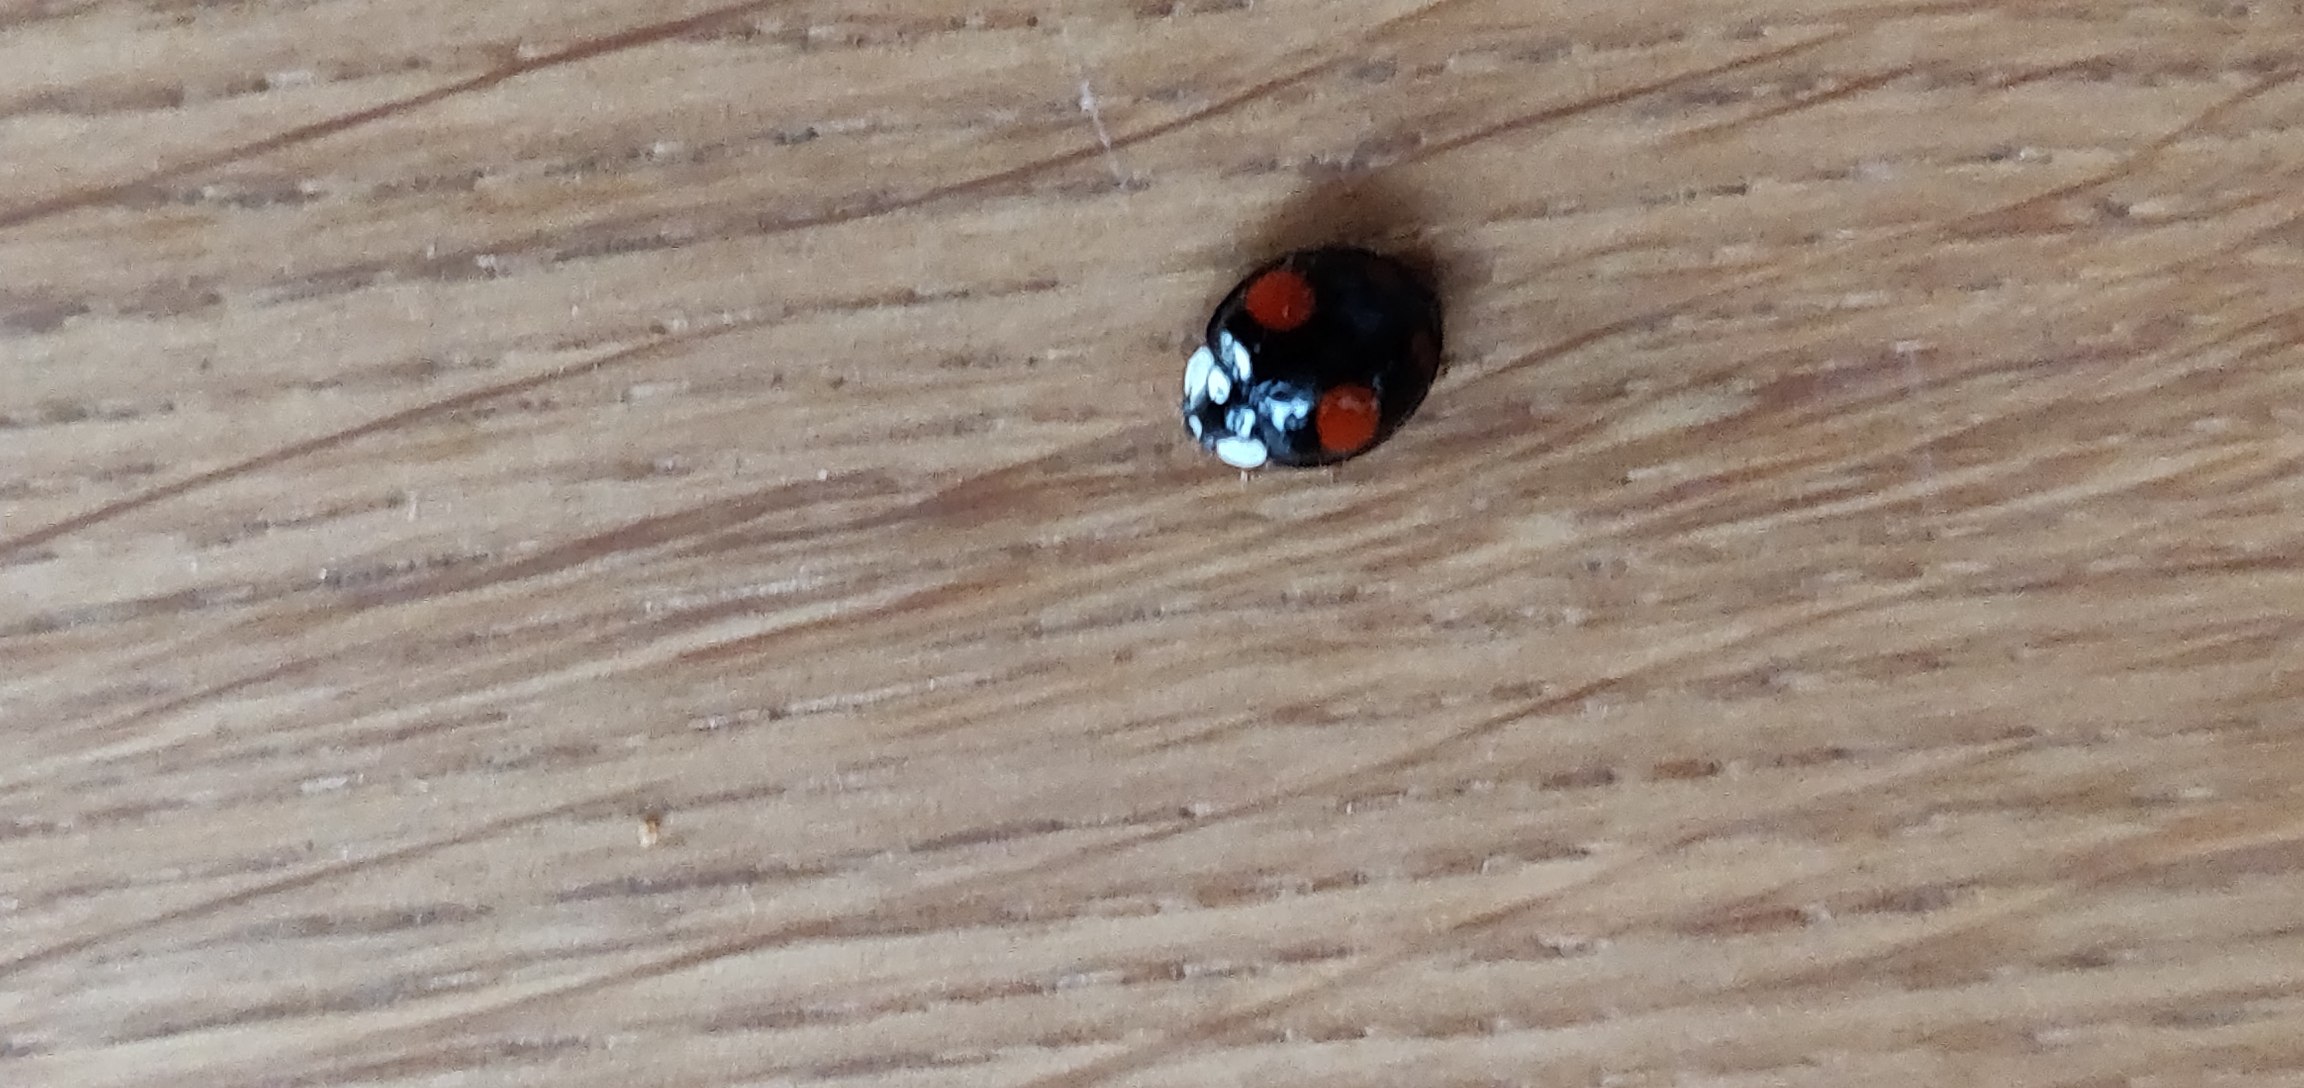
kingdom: Animalia
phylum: Arthropoda
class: Insecta
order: Coleoptera
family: Coccinellidae
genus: Harmonia
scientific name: Harmonia axyridis
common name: Harlekinmariehøne
